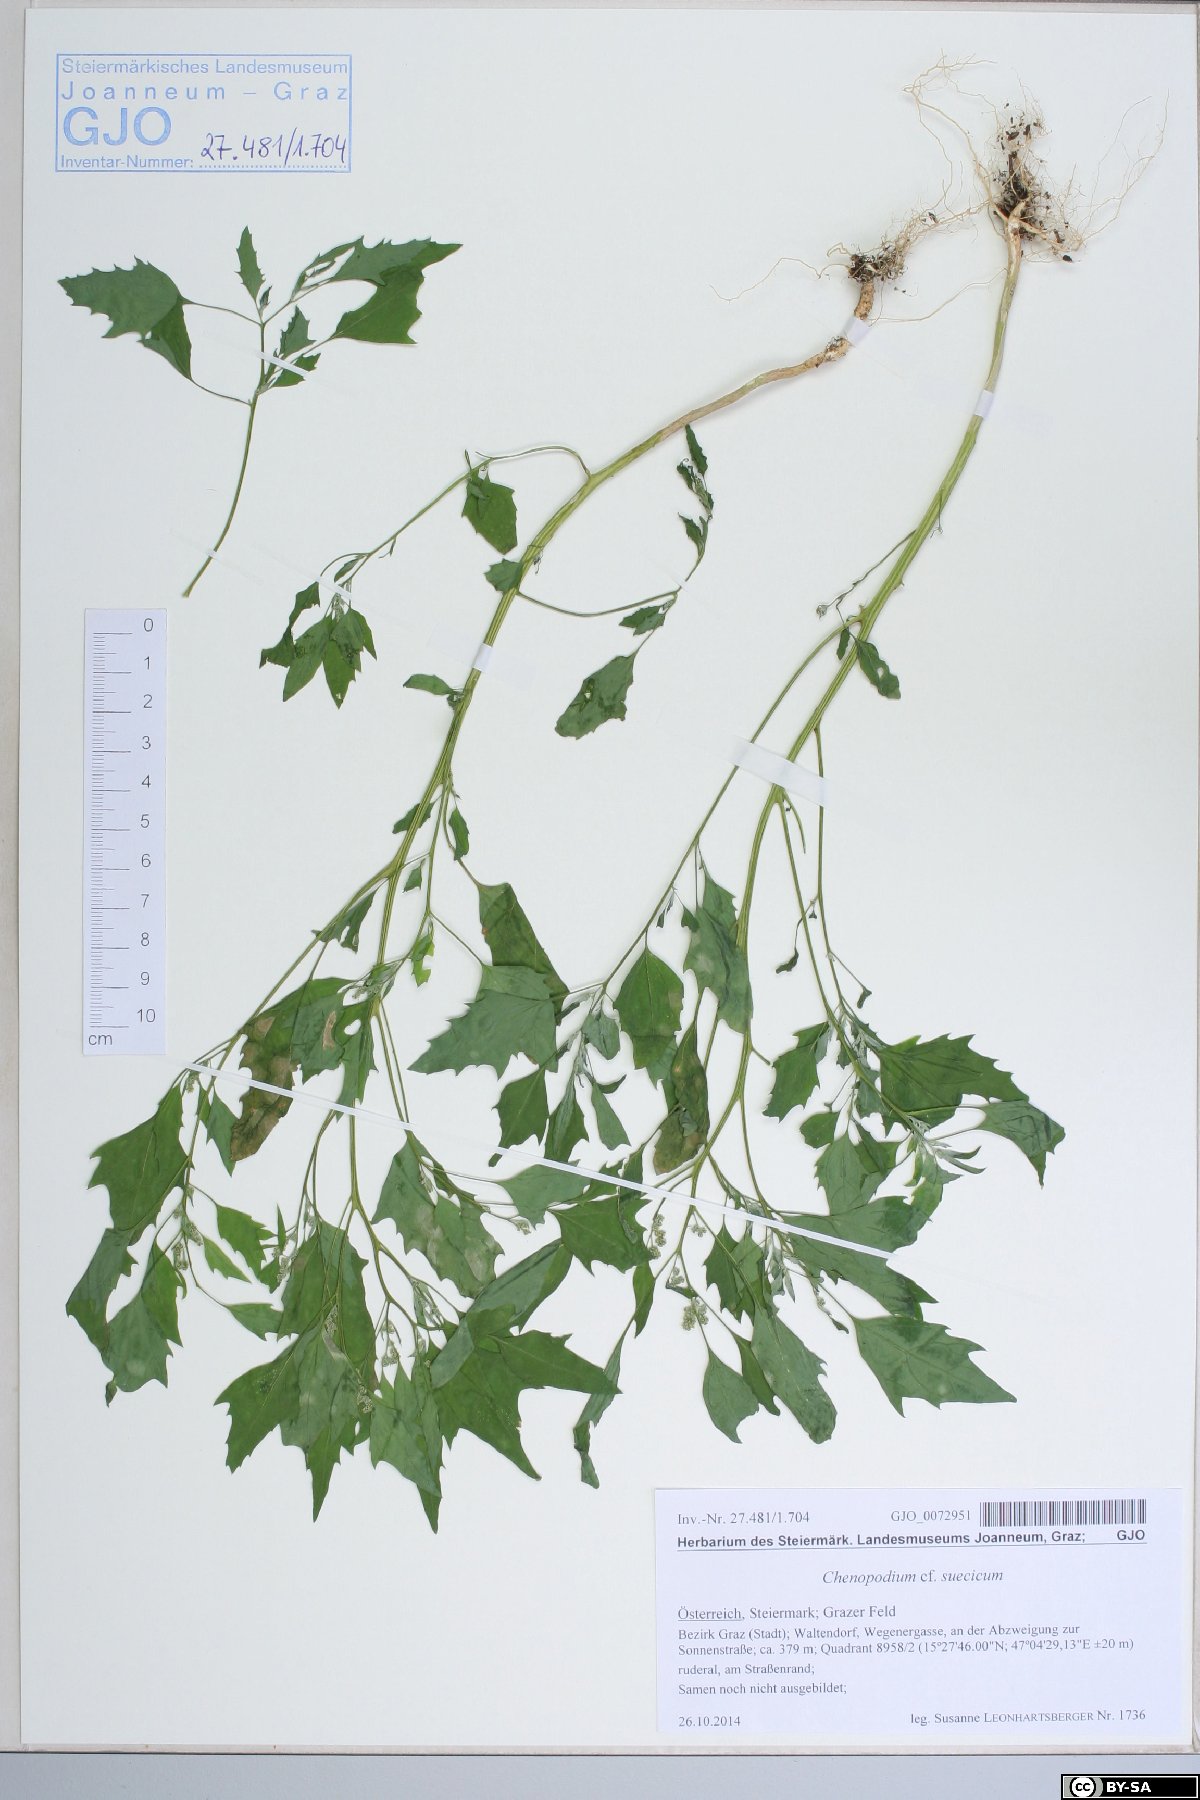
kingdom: Plantae
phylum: Tracheophyta
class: Magnoliopsida
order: Caryophyllales
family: Amaranthaceae
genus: Chenopodium
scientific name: Chenopodium suecicum
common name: Swedish goosefoot
